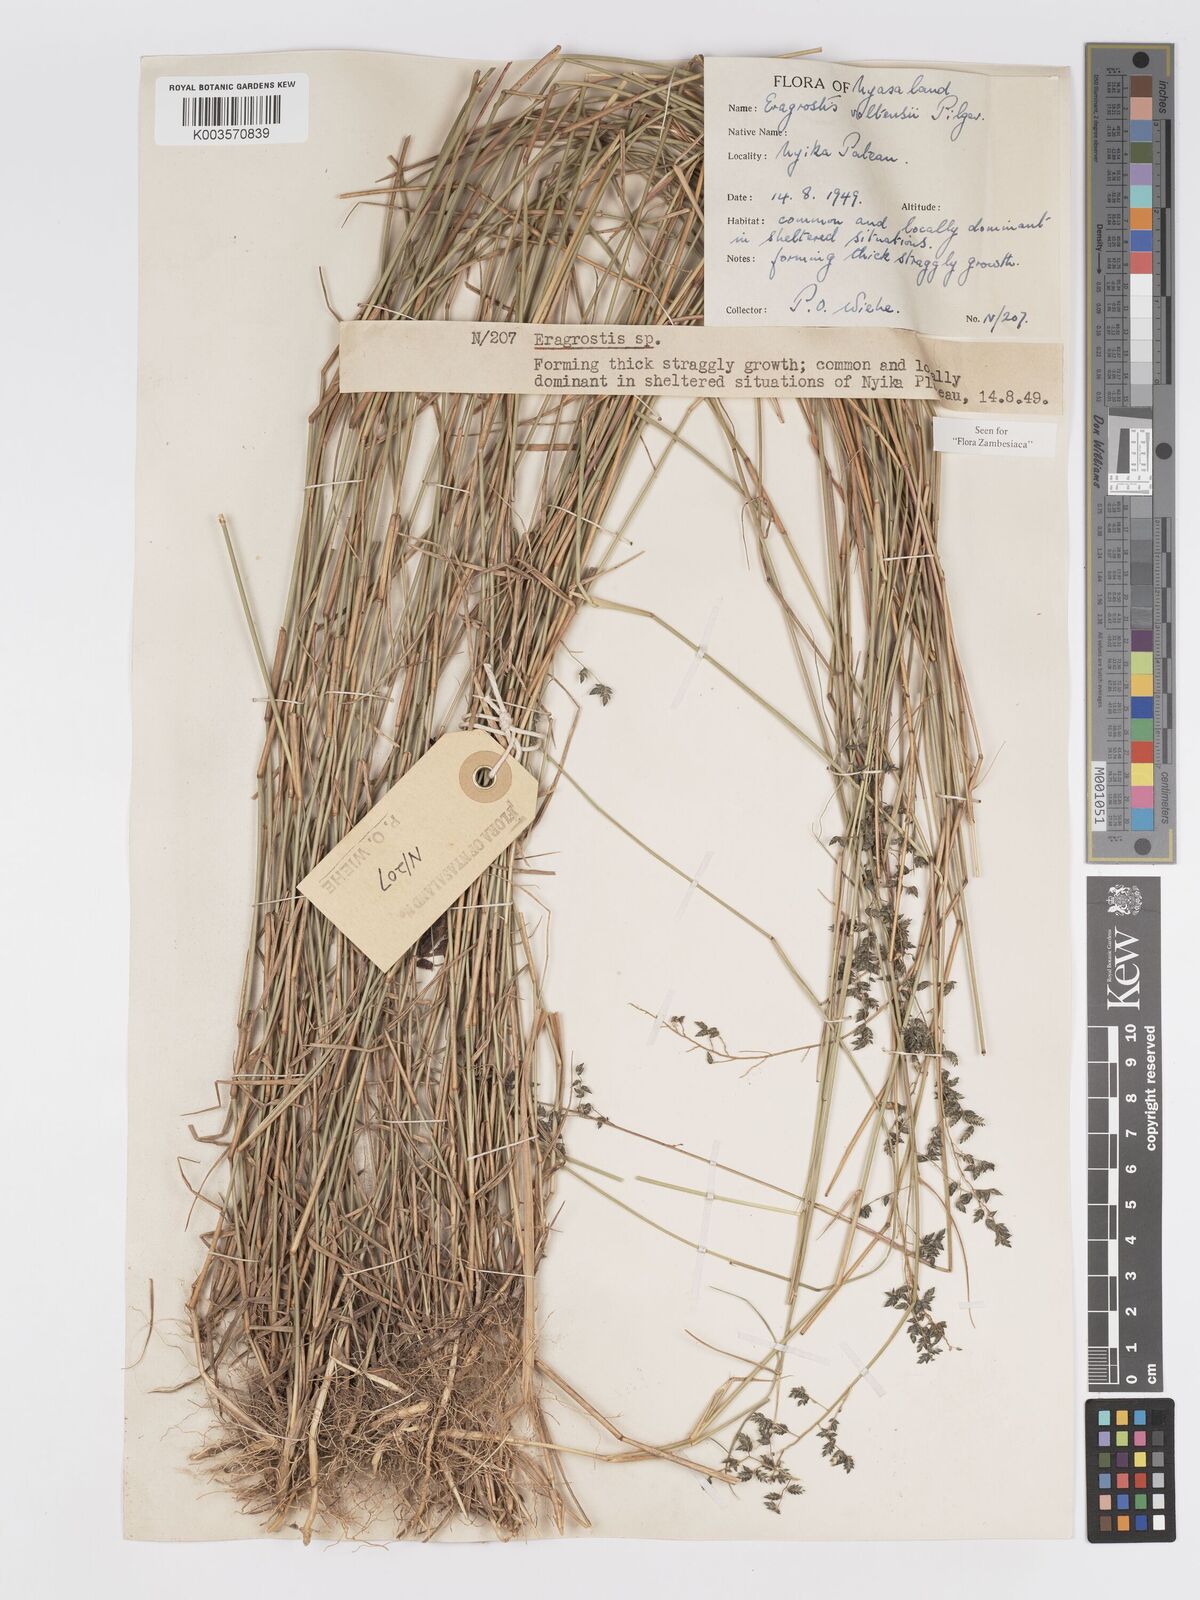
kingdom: Plantae
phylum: Tracheophyta
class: Liliopsida
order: Poales
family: Poaceae
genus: Eragrostis
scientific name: Eragrostis volkensii
